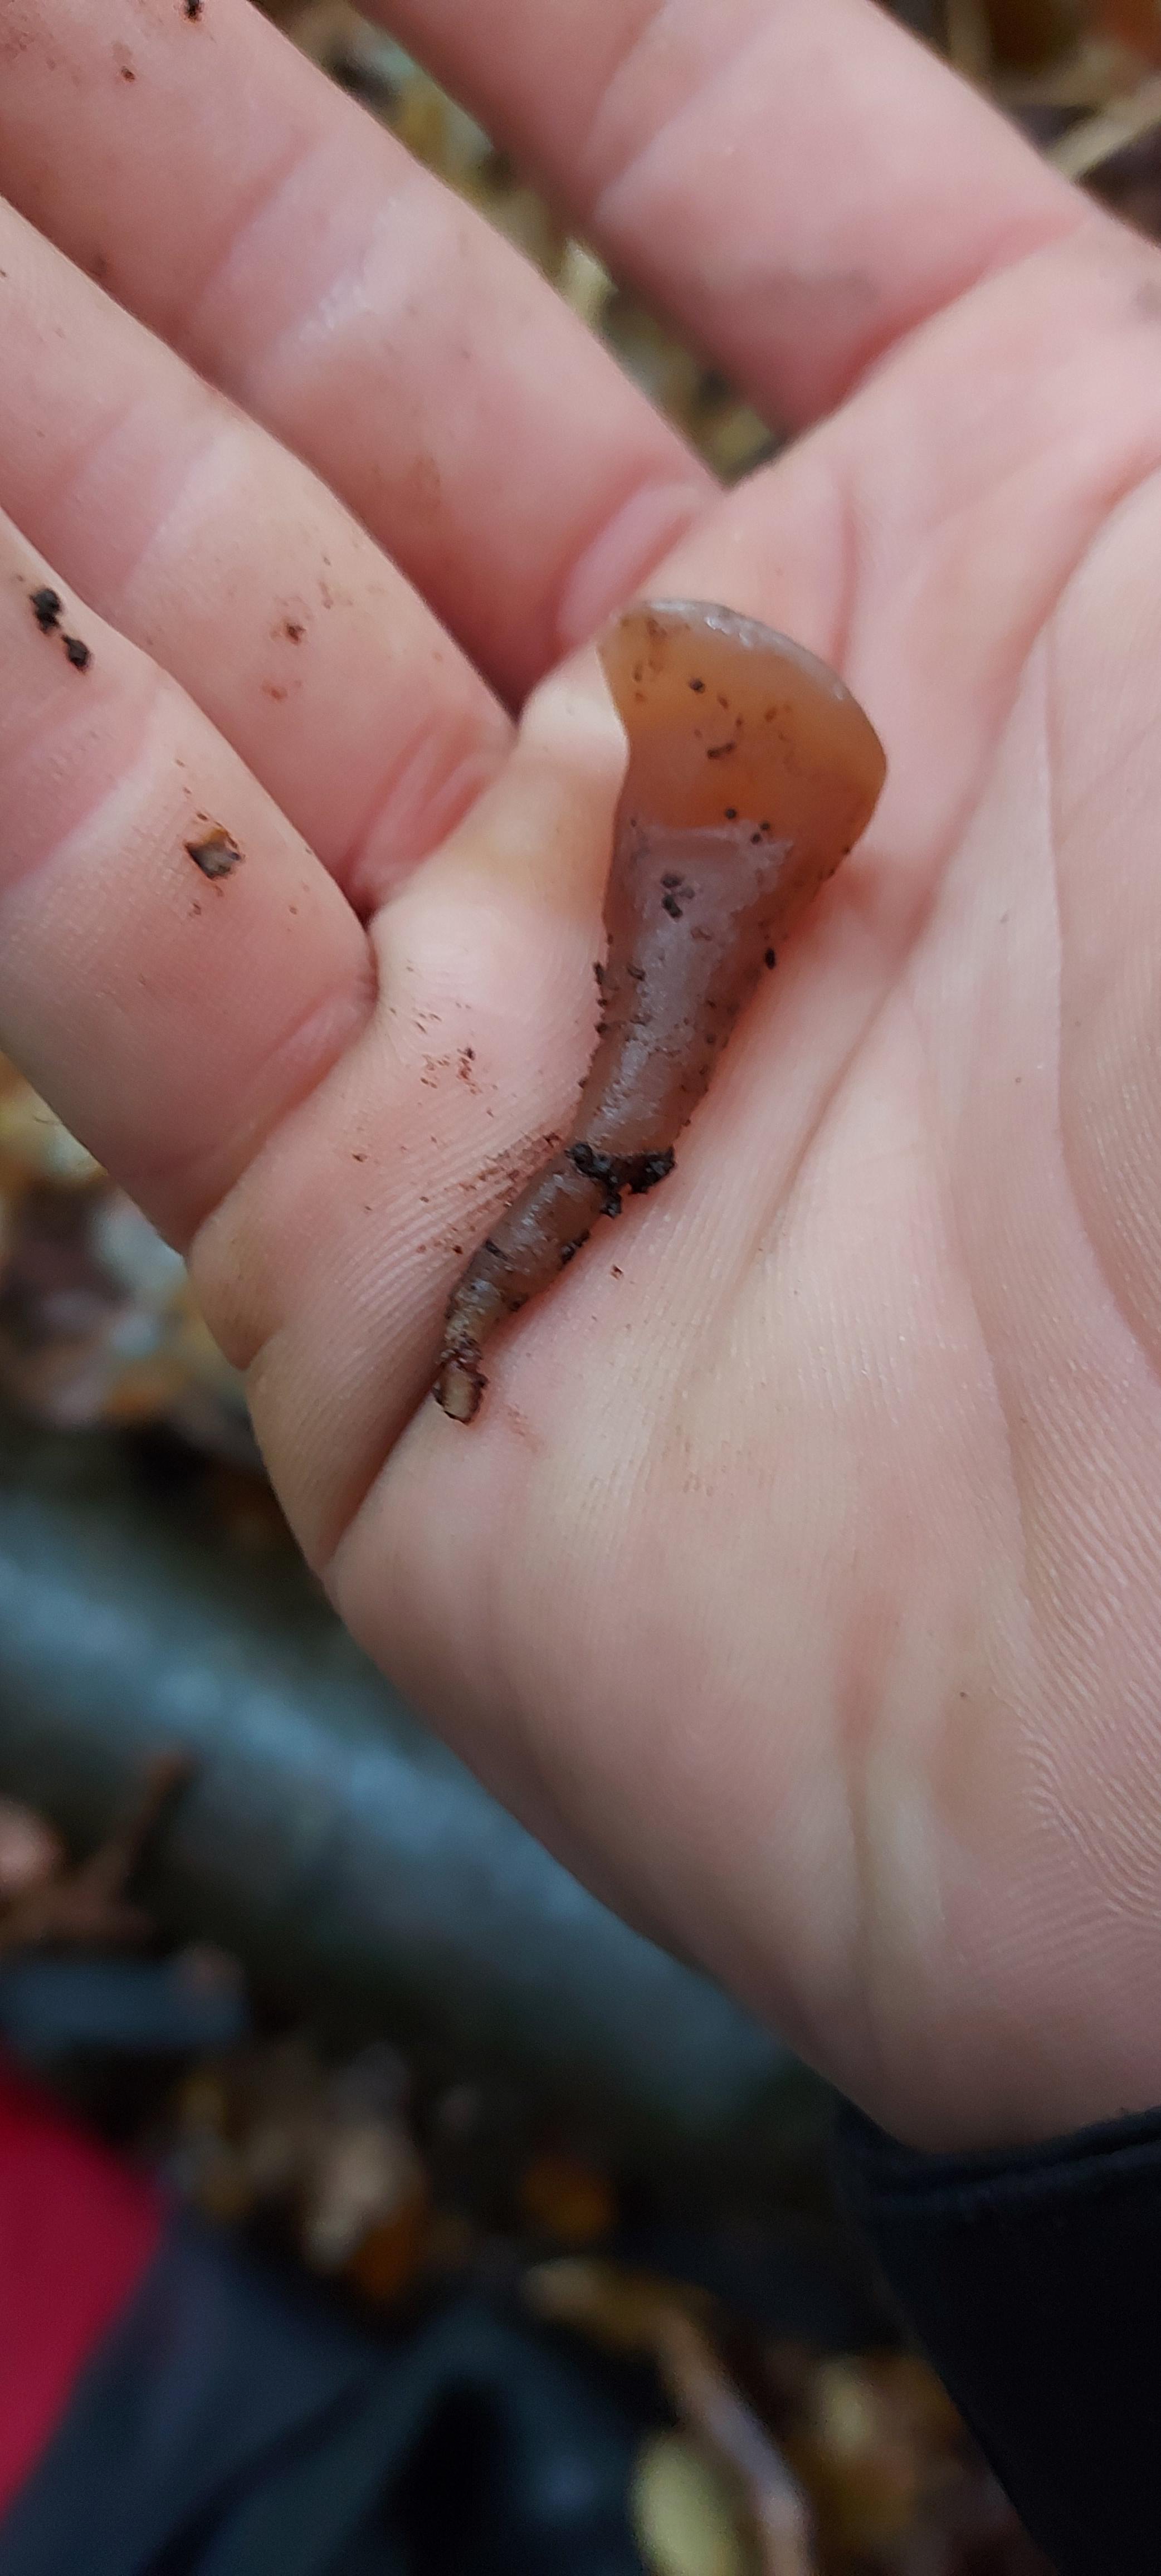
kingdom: Fungi
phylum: Basidiomycota
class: Agaricomycetes
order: Auriculariales
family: Auriculariaceae
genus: Auricularia
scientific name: Auricularia auricula-judae
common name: almindelig judasøre
